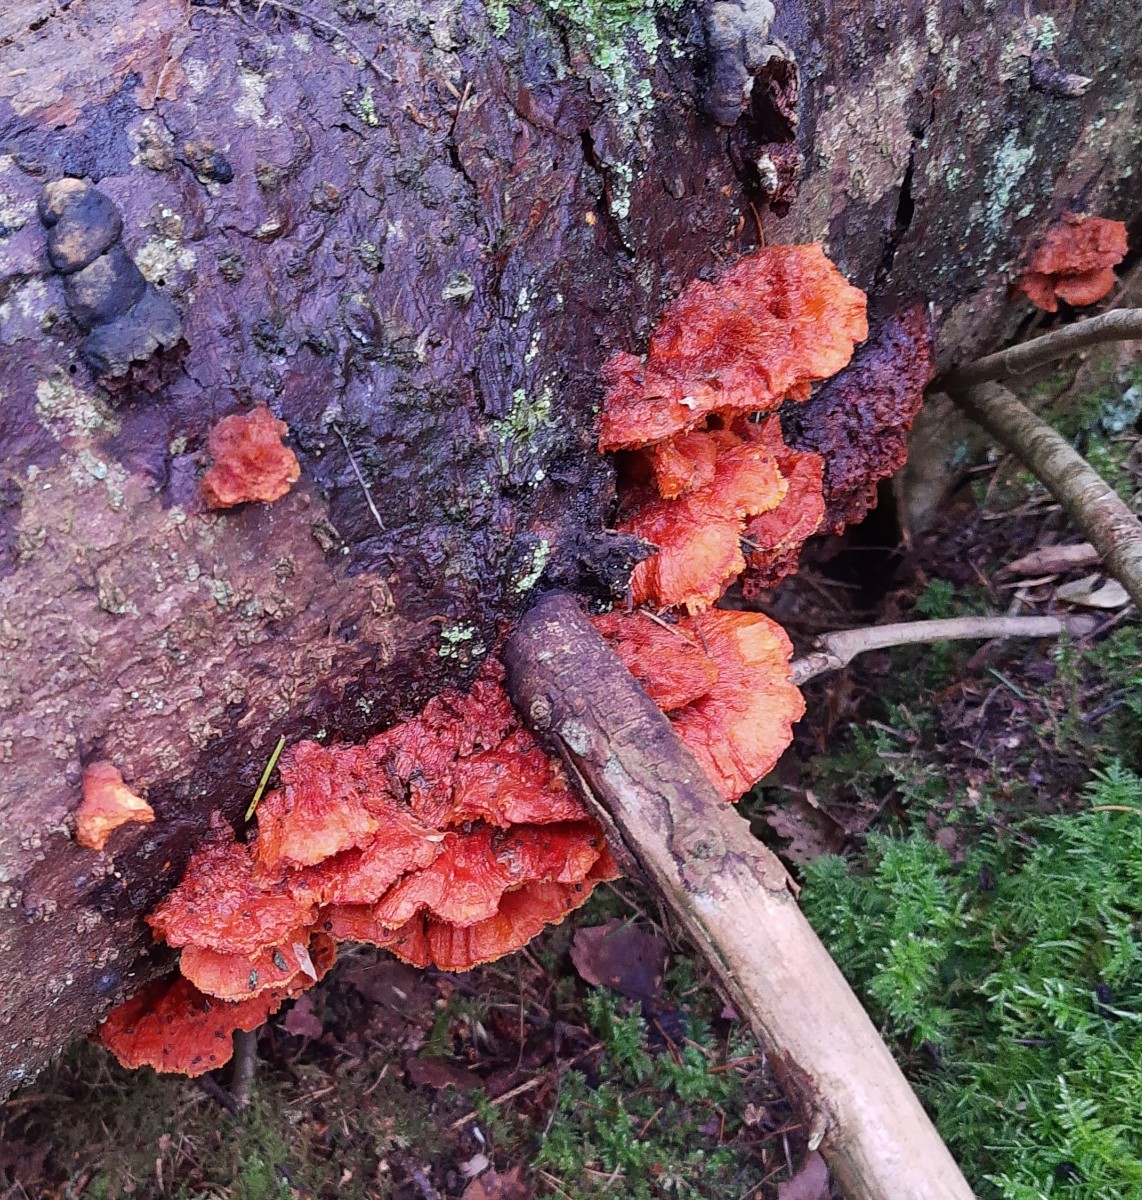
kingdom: Fungi
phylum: Basidiomycota
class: Agaricomycetes
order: Polyporales
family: Pycnoporellaceae
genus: Pycnoporellus
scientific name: Pycnoporellus fulgens
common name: flammeporesvamp
